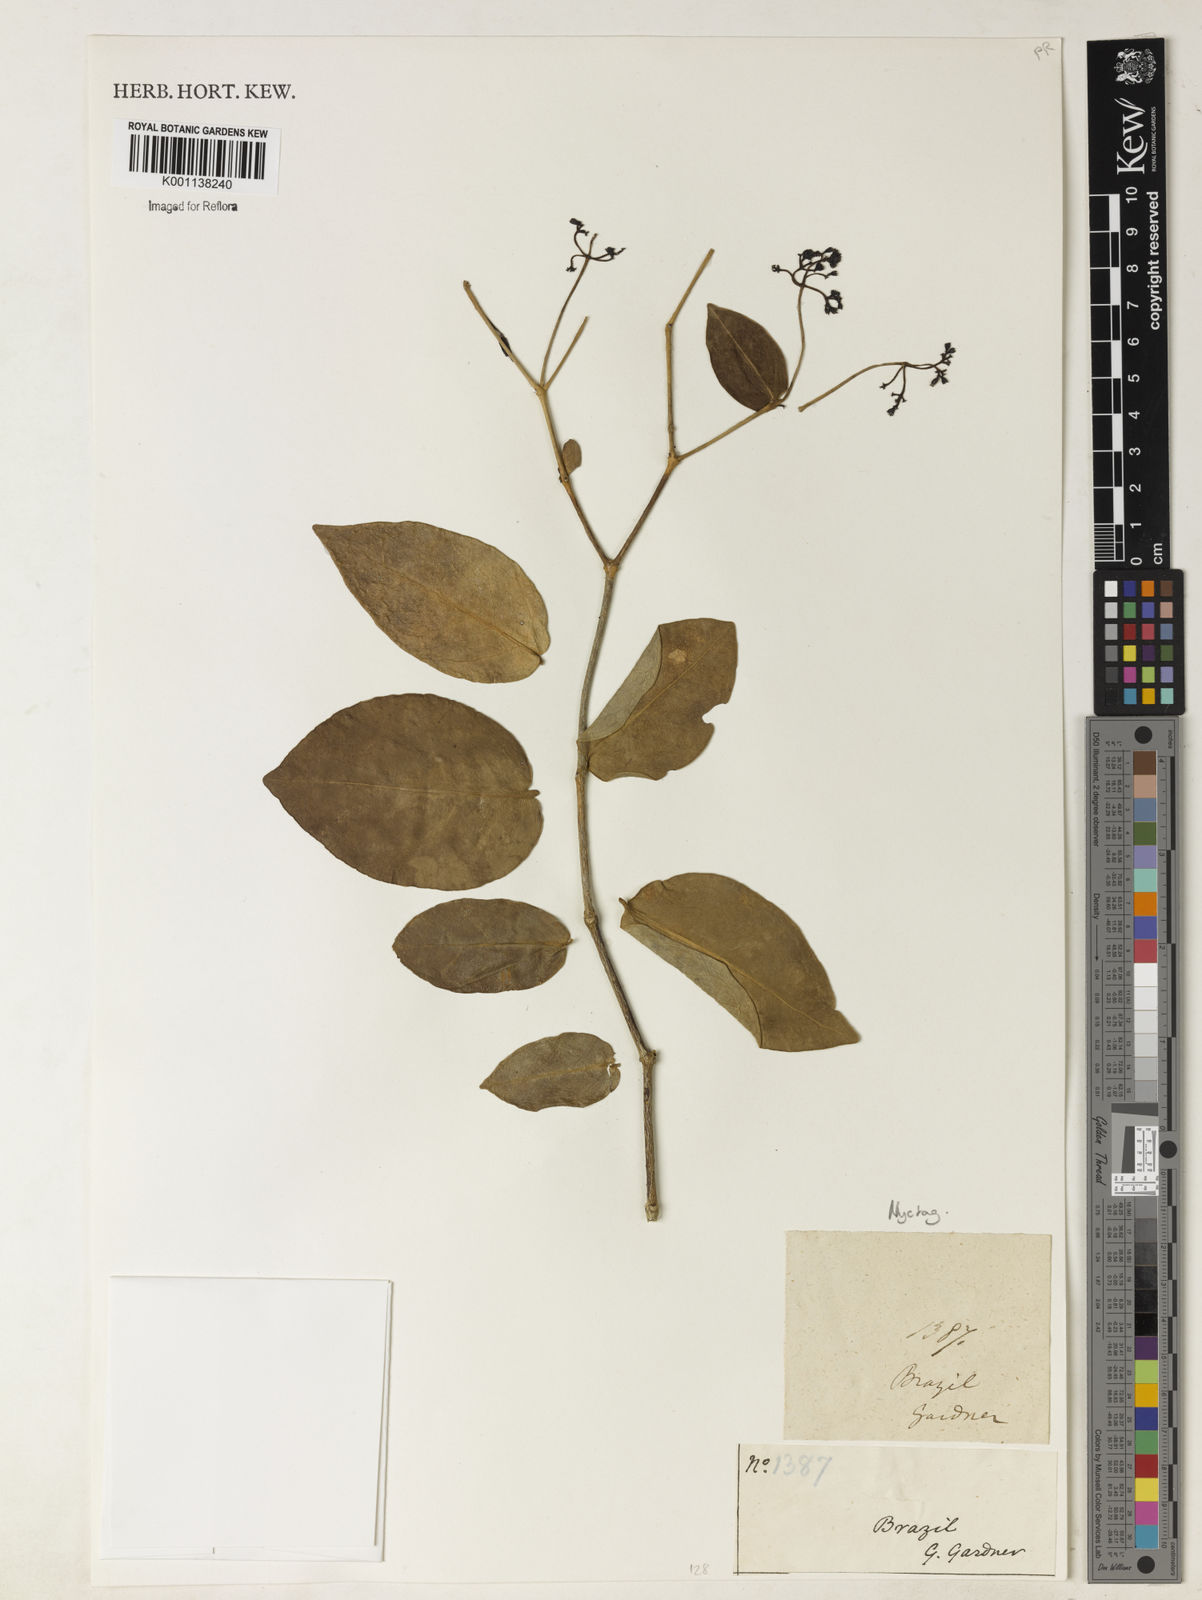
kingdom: Plantae
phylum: Tracheophyta
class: Magnoliopsida
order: Caryophyllales
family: Nyctaginaceae
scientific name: Nyctaginaceae
